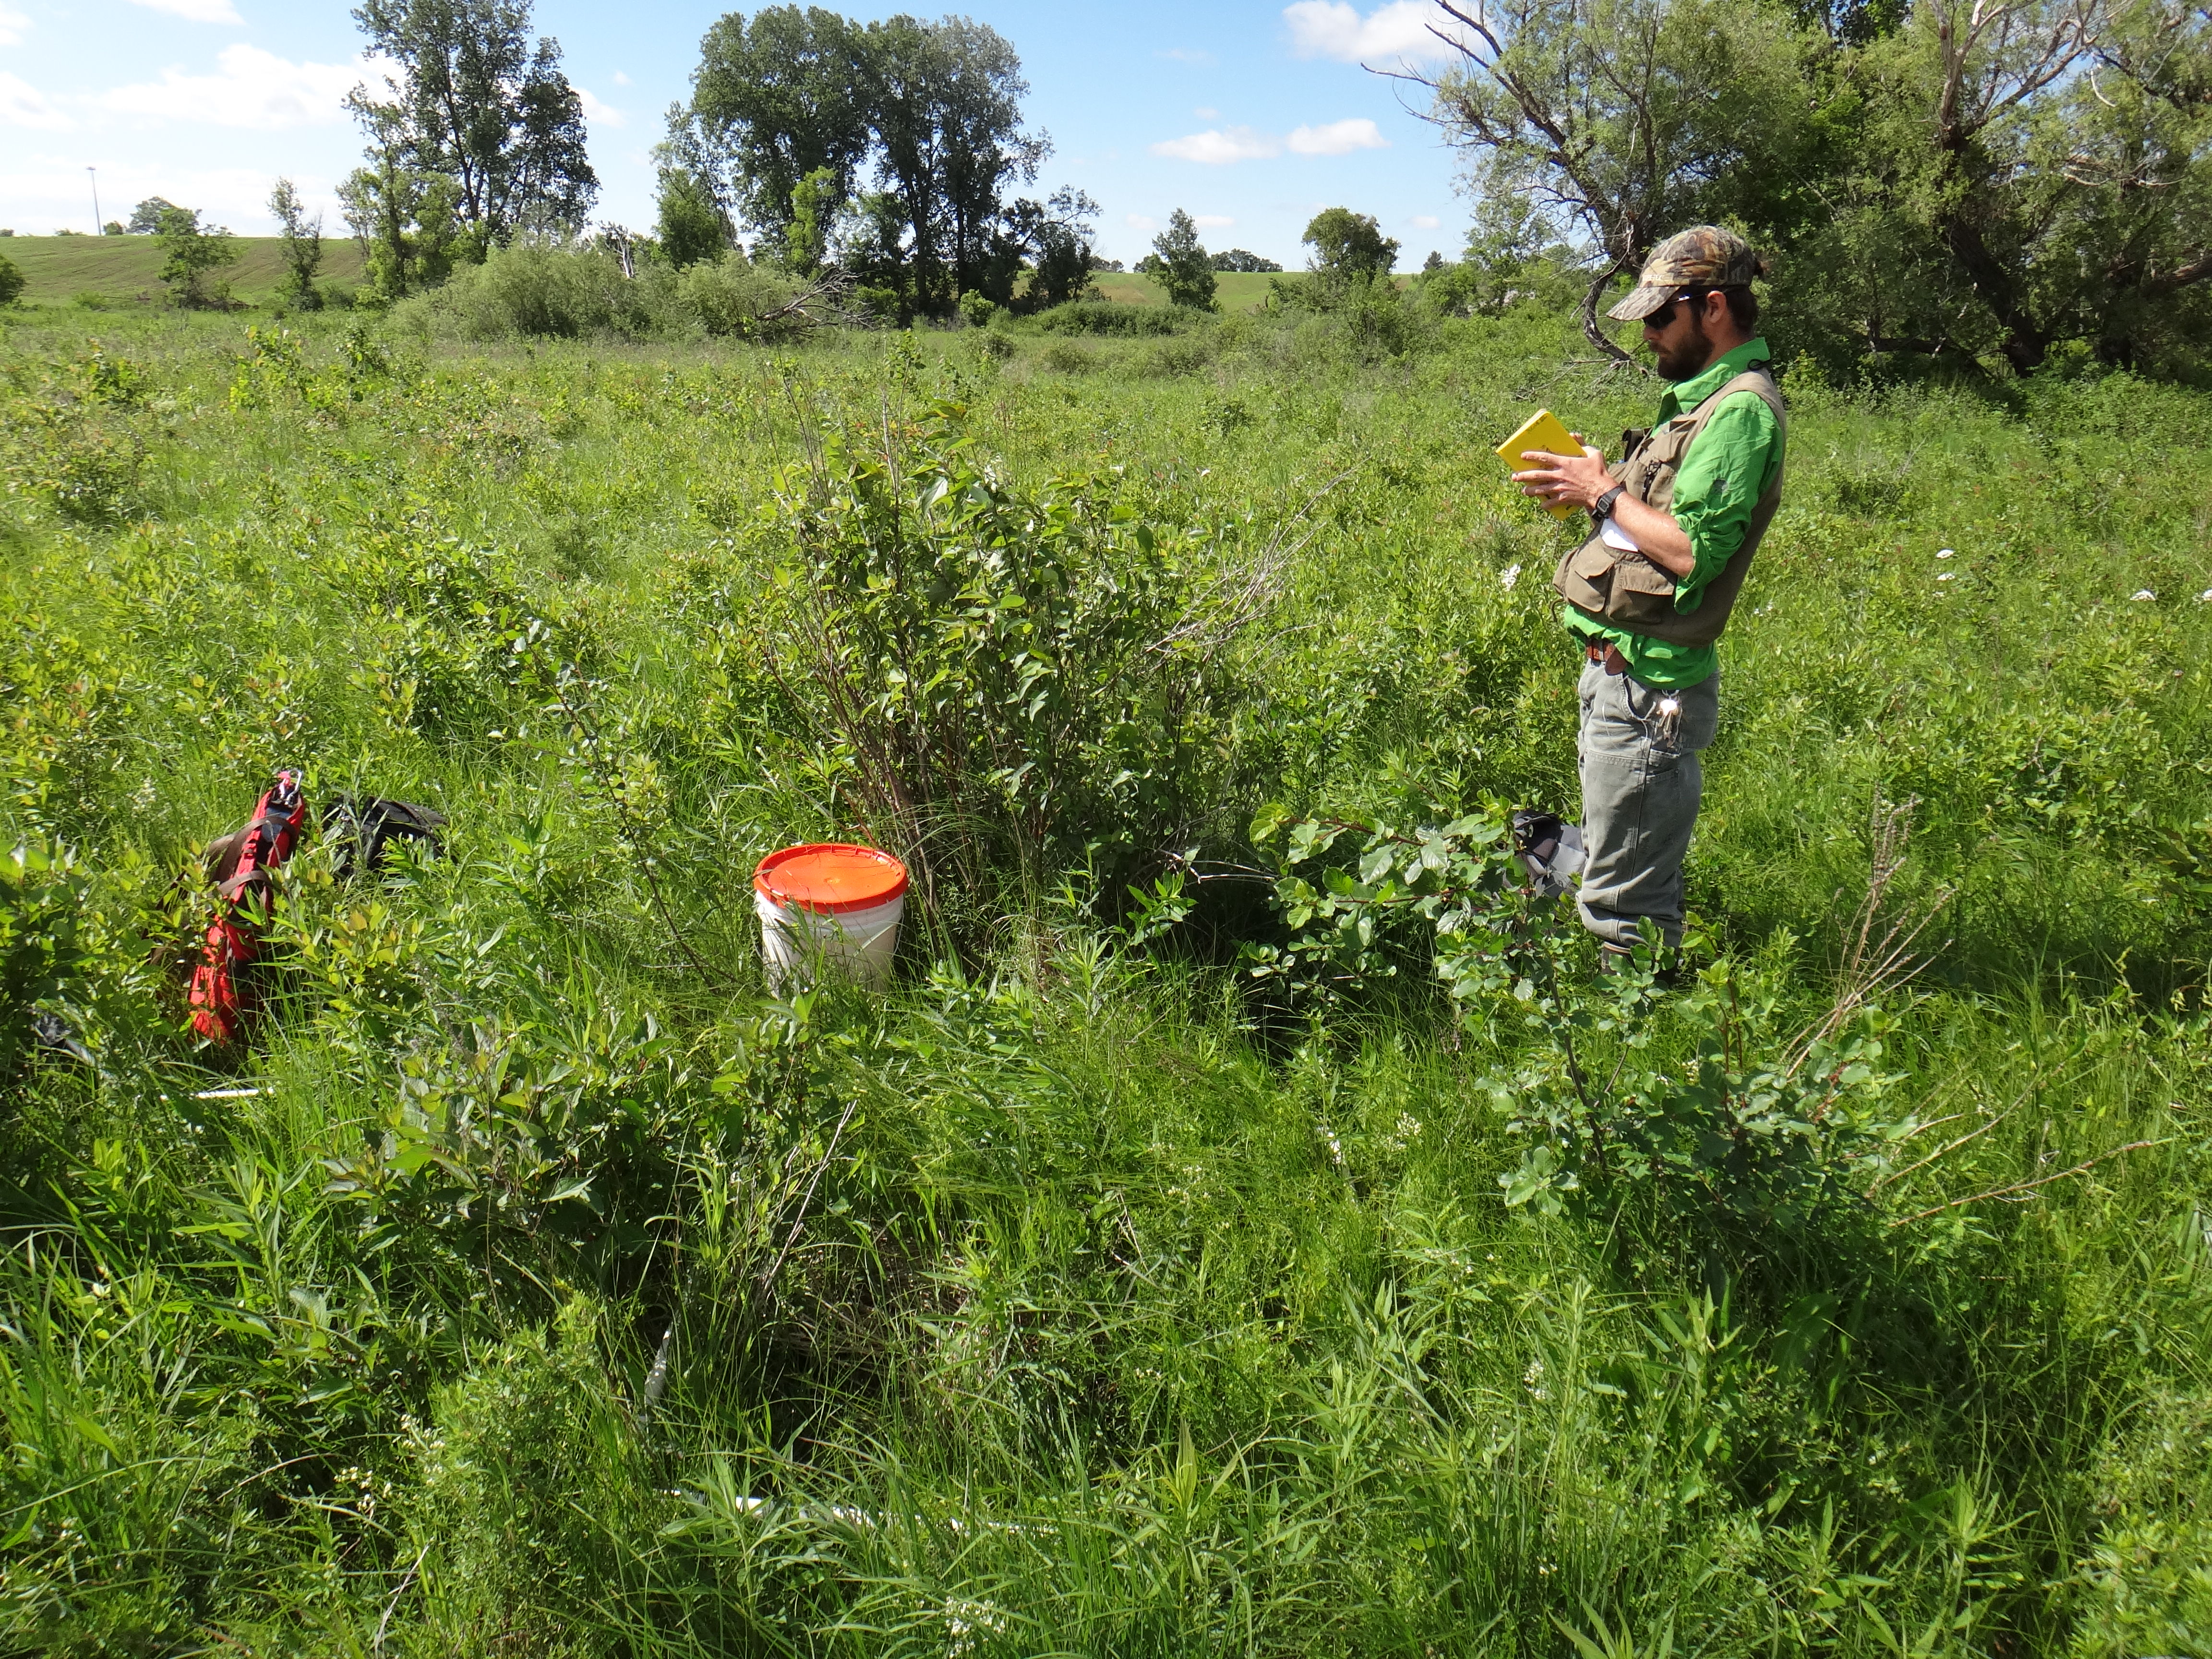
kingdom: Plantae
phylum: Tracheophyta
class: Liliopsida
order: Poales
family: Poaceae
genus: Sorghastrum
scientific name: Sorghastrum nutans
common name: Indian grass
